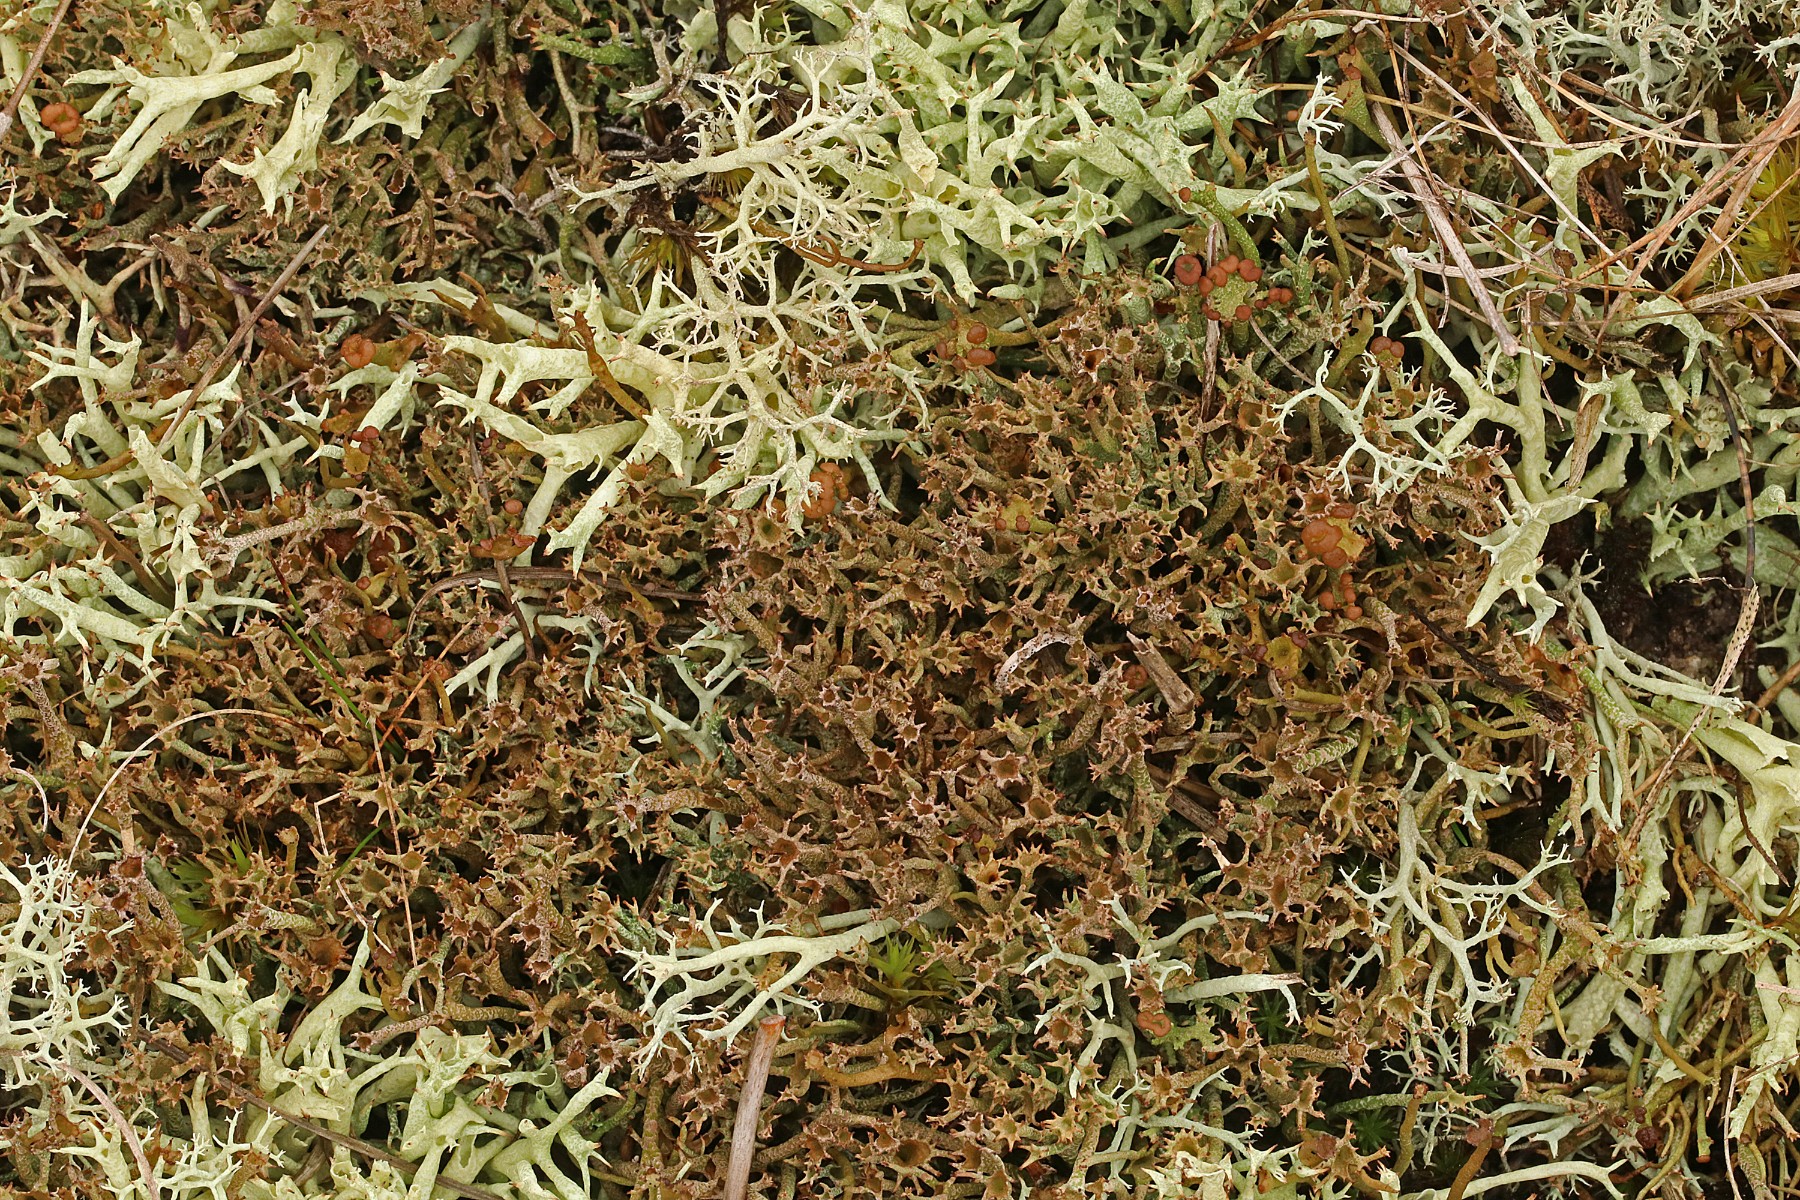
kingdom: Fungi
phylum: Ascomycota
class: Lecanoromycetes
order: Lecanorales
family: Cladoniaceae
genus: Cladonia
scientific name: Cladonia crispata
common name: takket bægerlav
